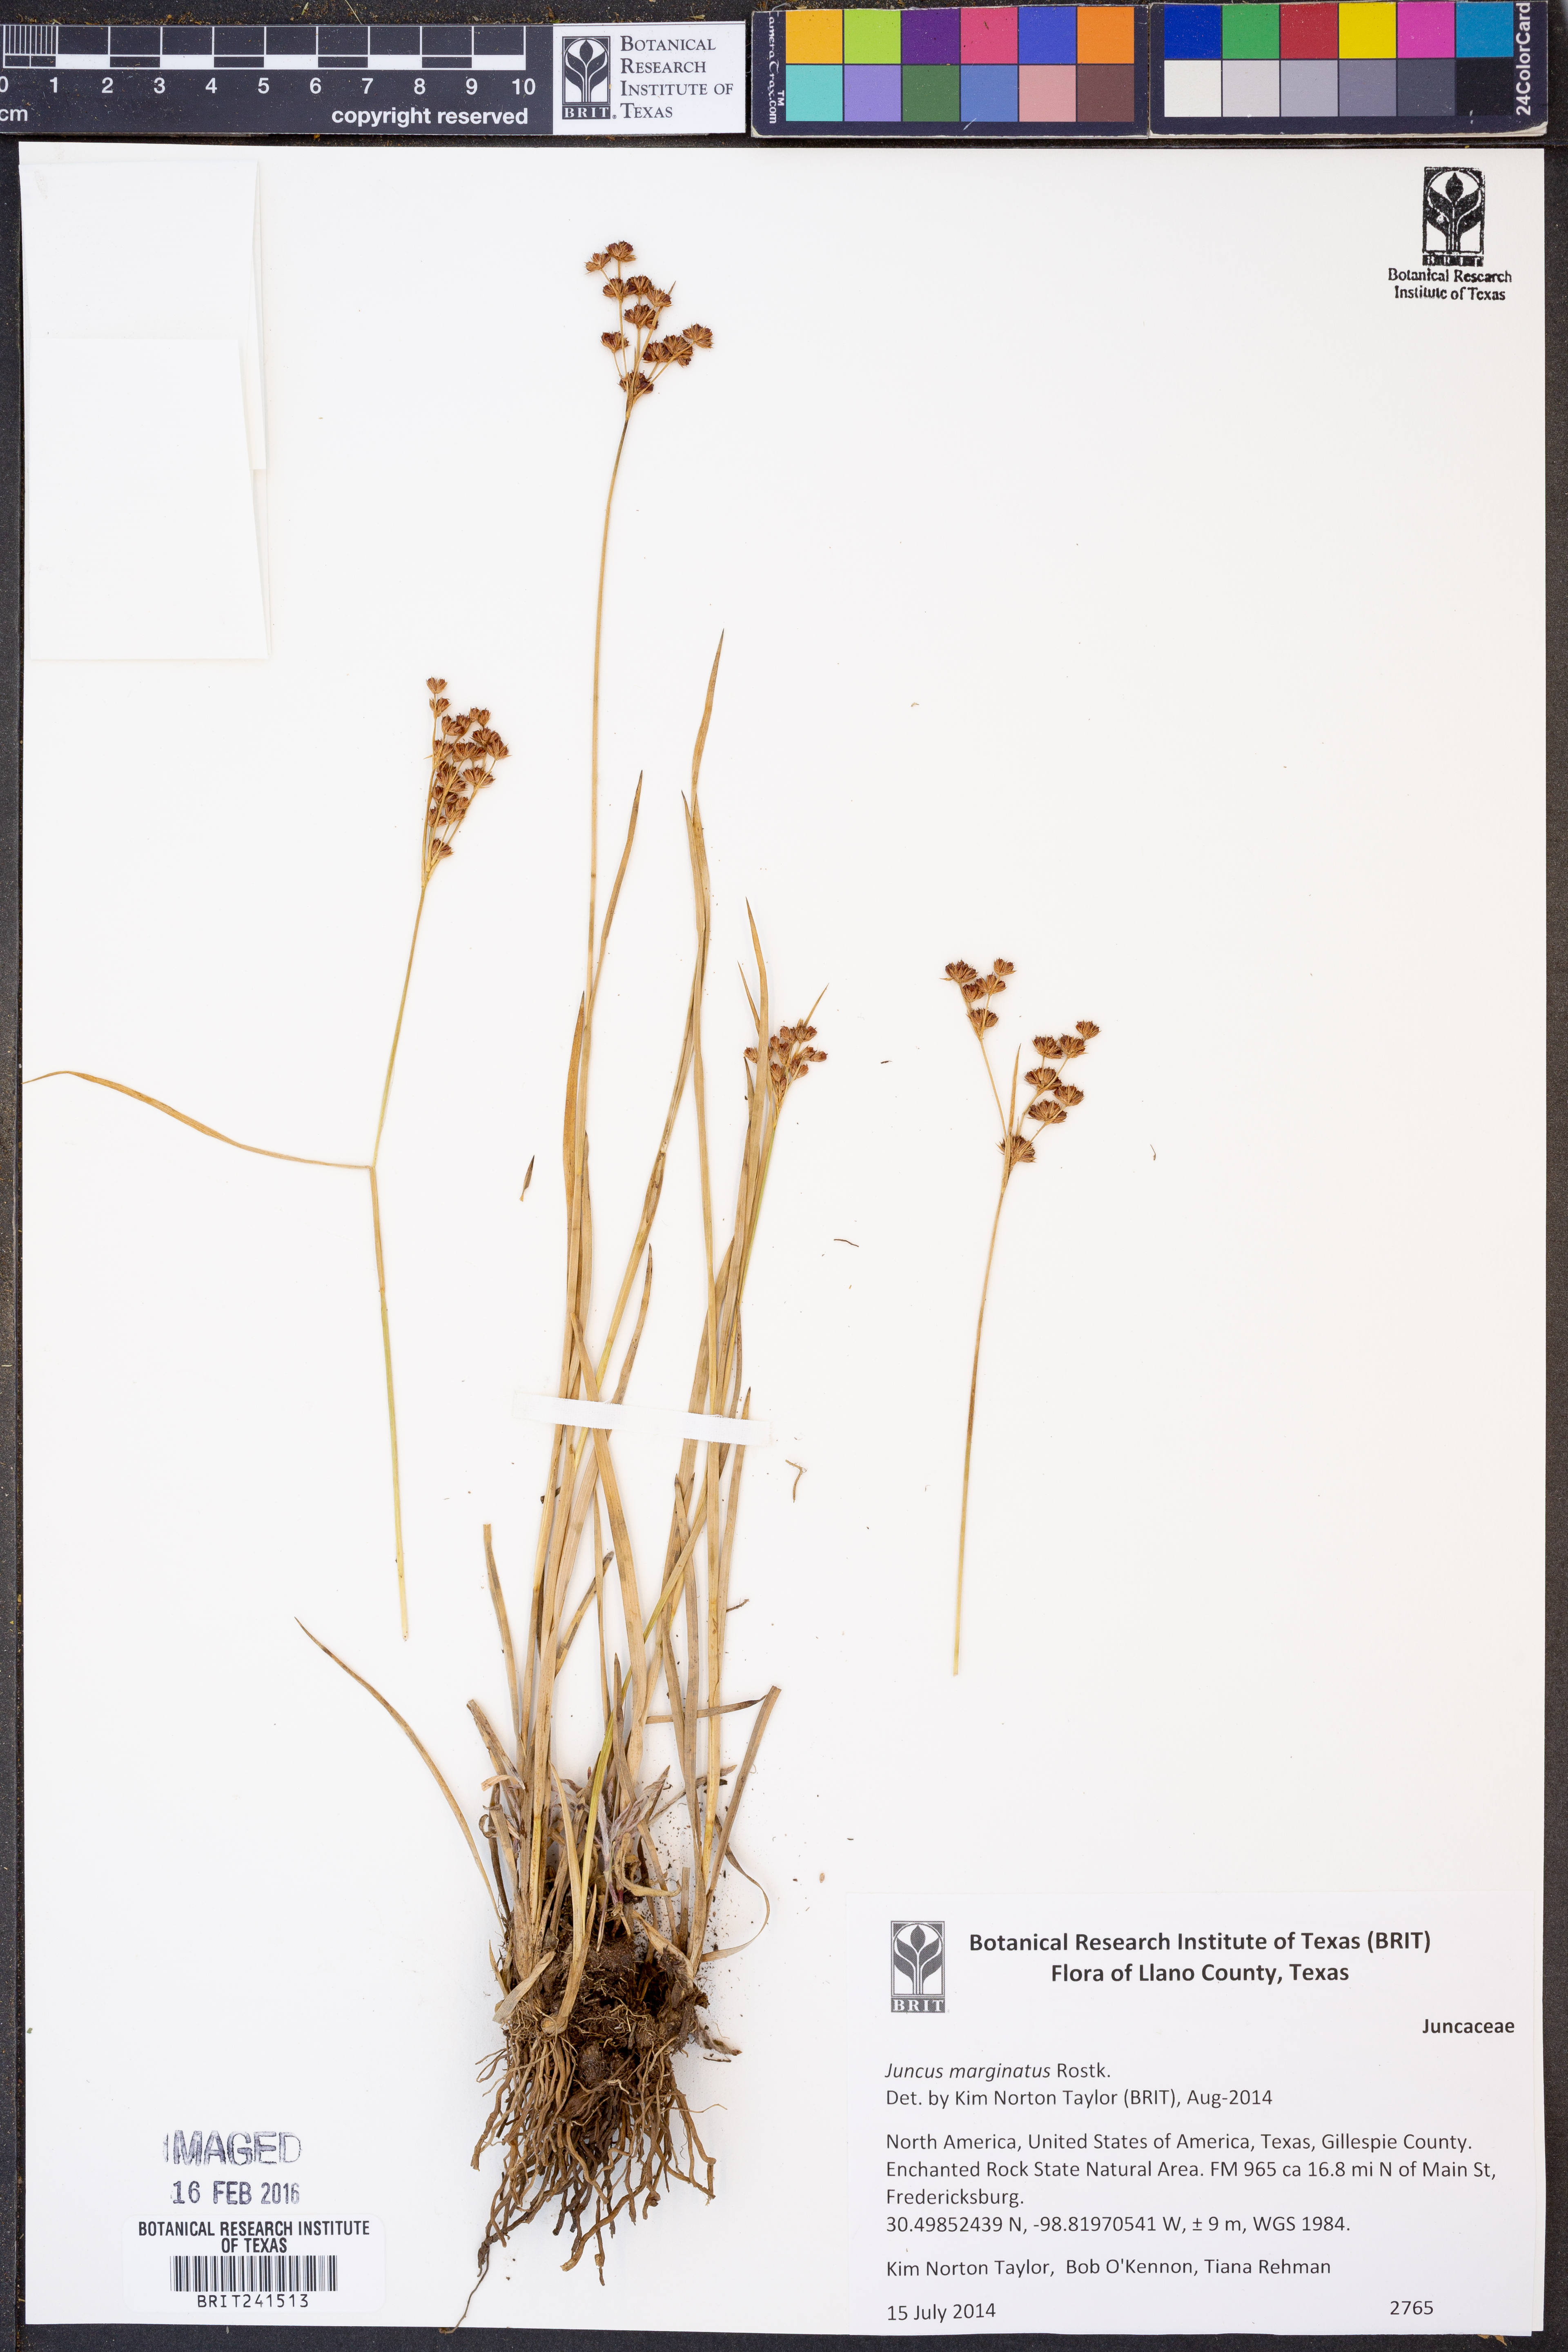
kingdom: Plantae
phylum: Tracheophyta
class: Liliopsida
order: Poales
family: Juncaceae
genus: Juncus
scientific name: Juncus marginatus
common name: Grass-leaf rush
